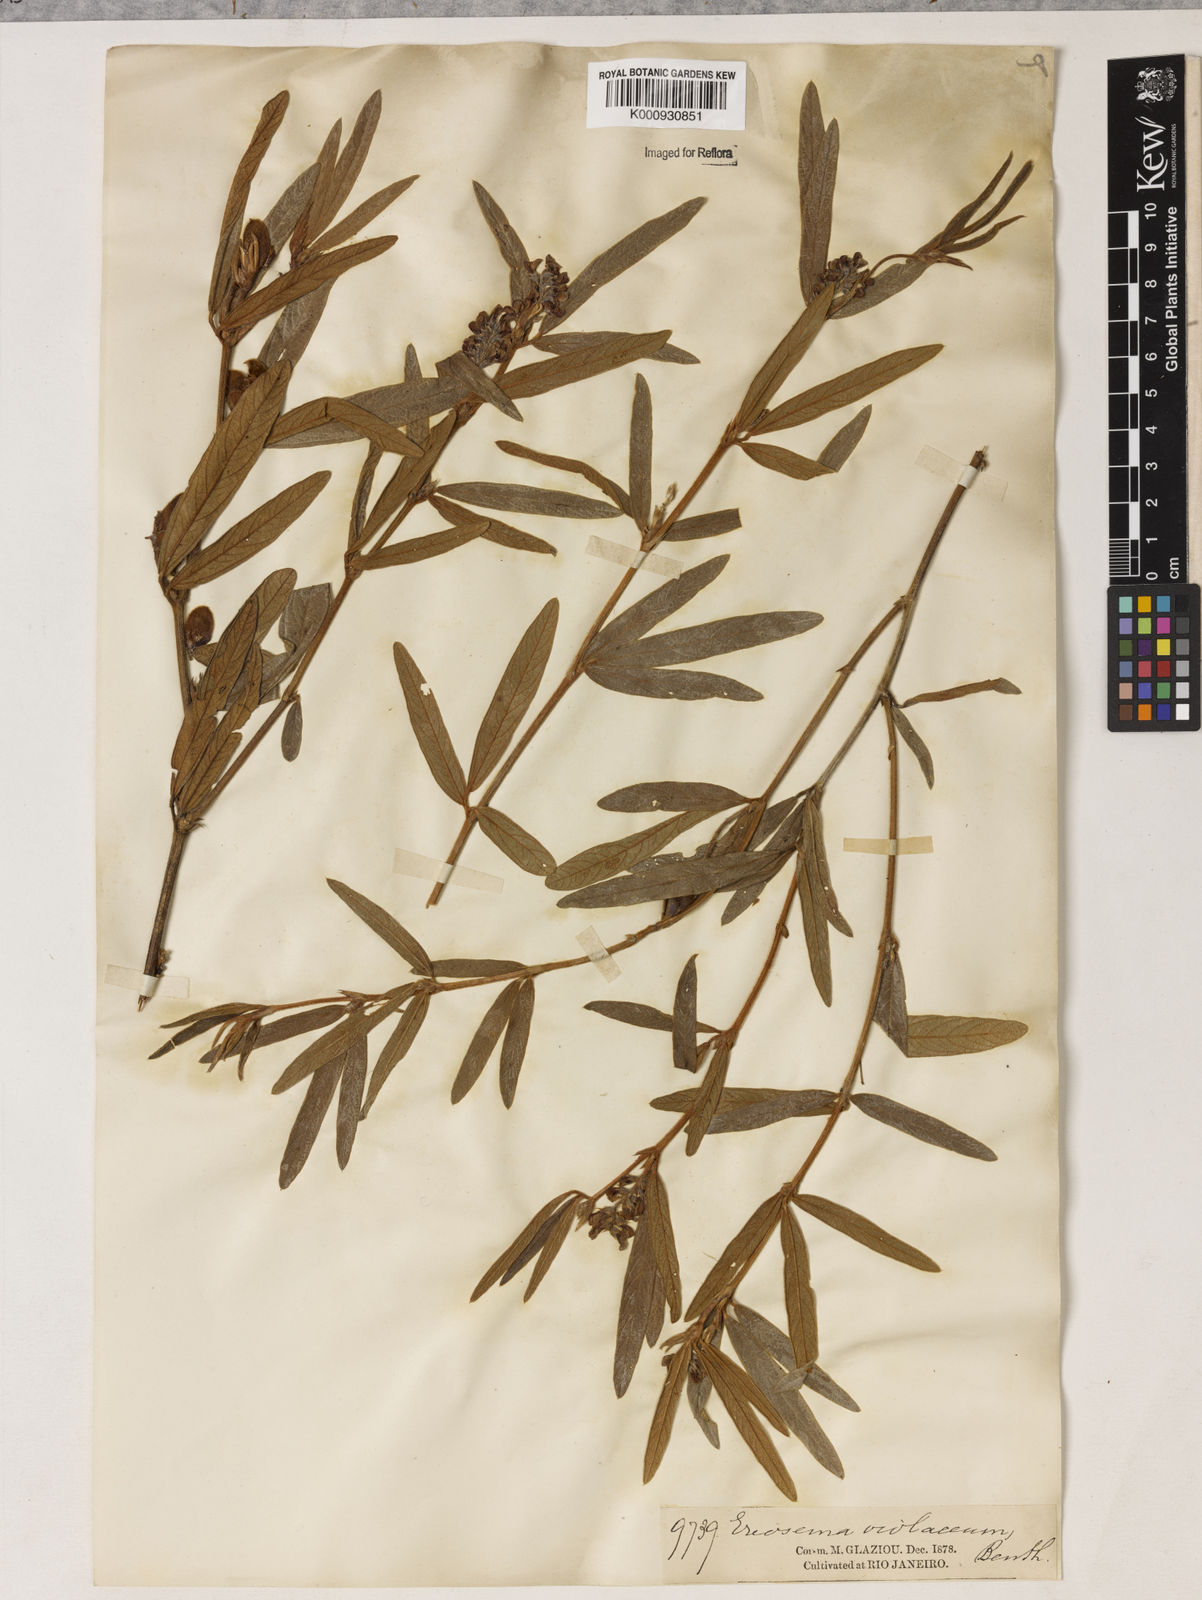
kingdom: Plantae
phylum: Tracheophyta
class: Magnoliopsida
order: Fabales
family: Fabaceae
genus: Eriosema
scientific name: Eriosema violaceum
